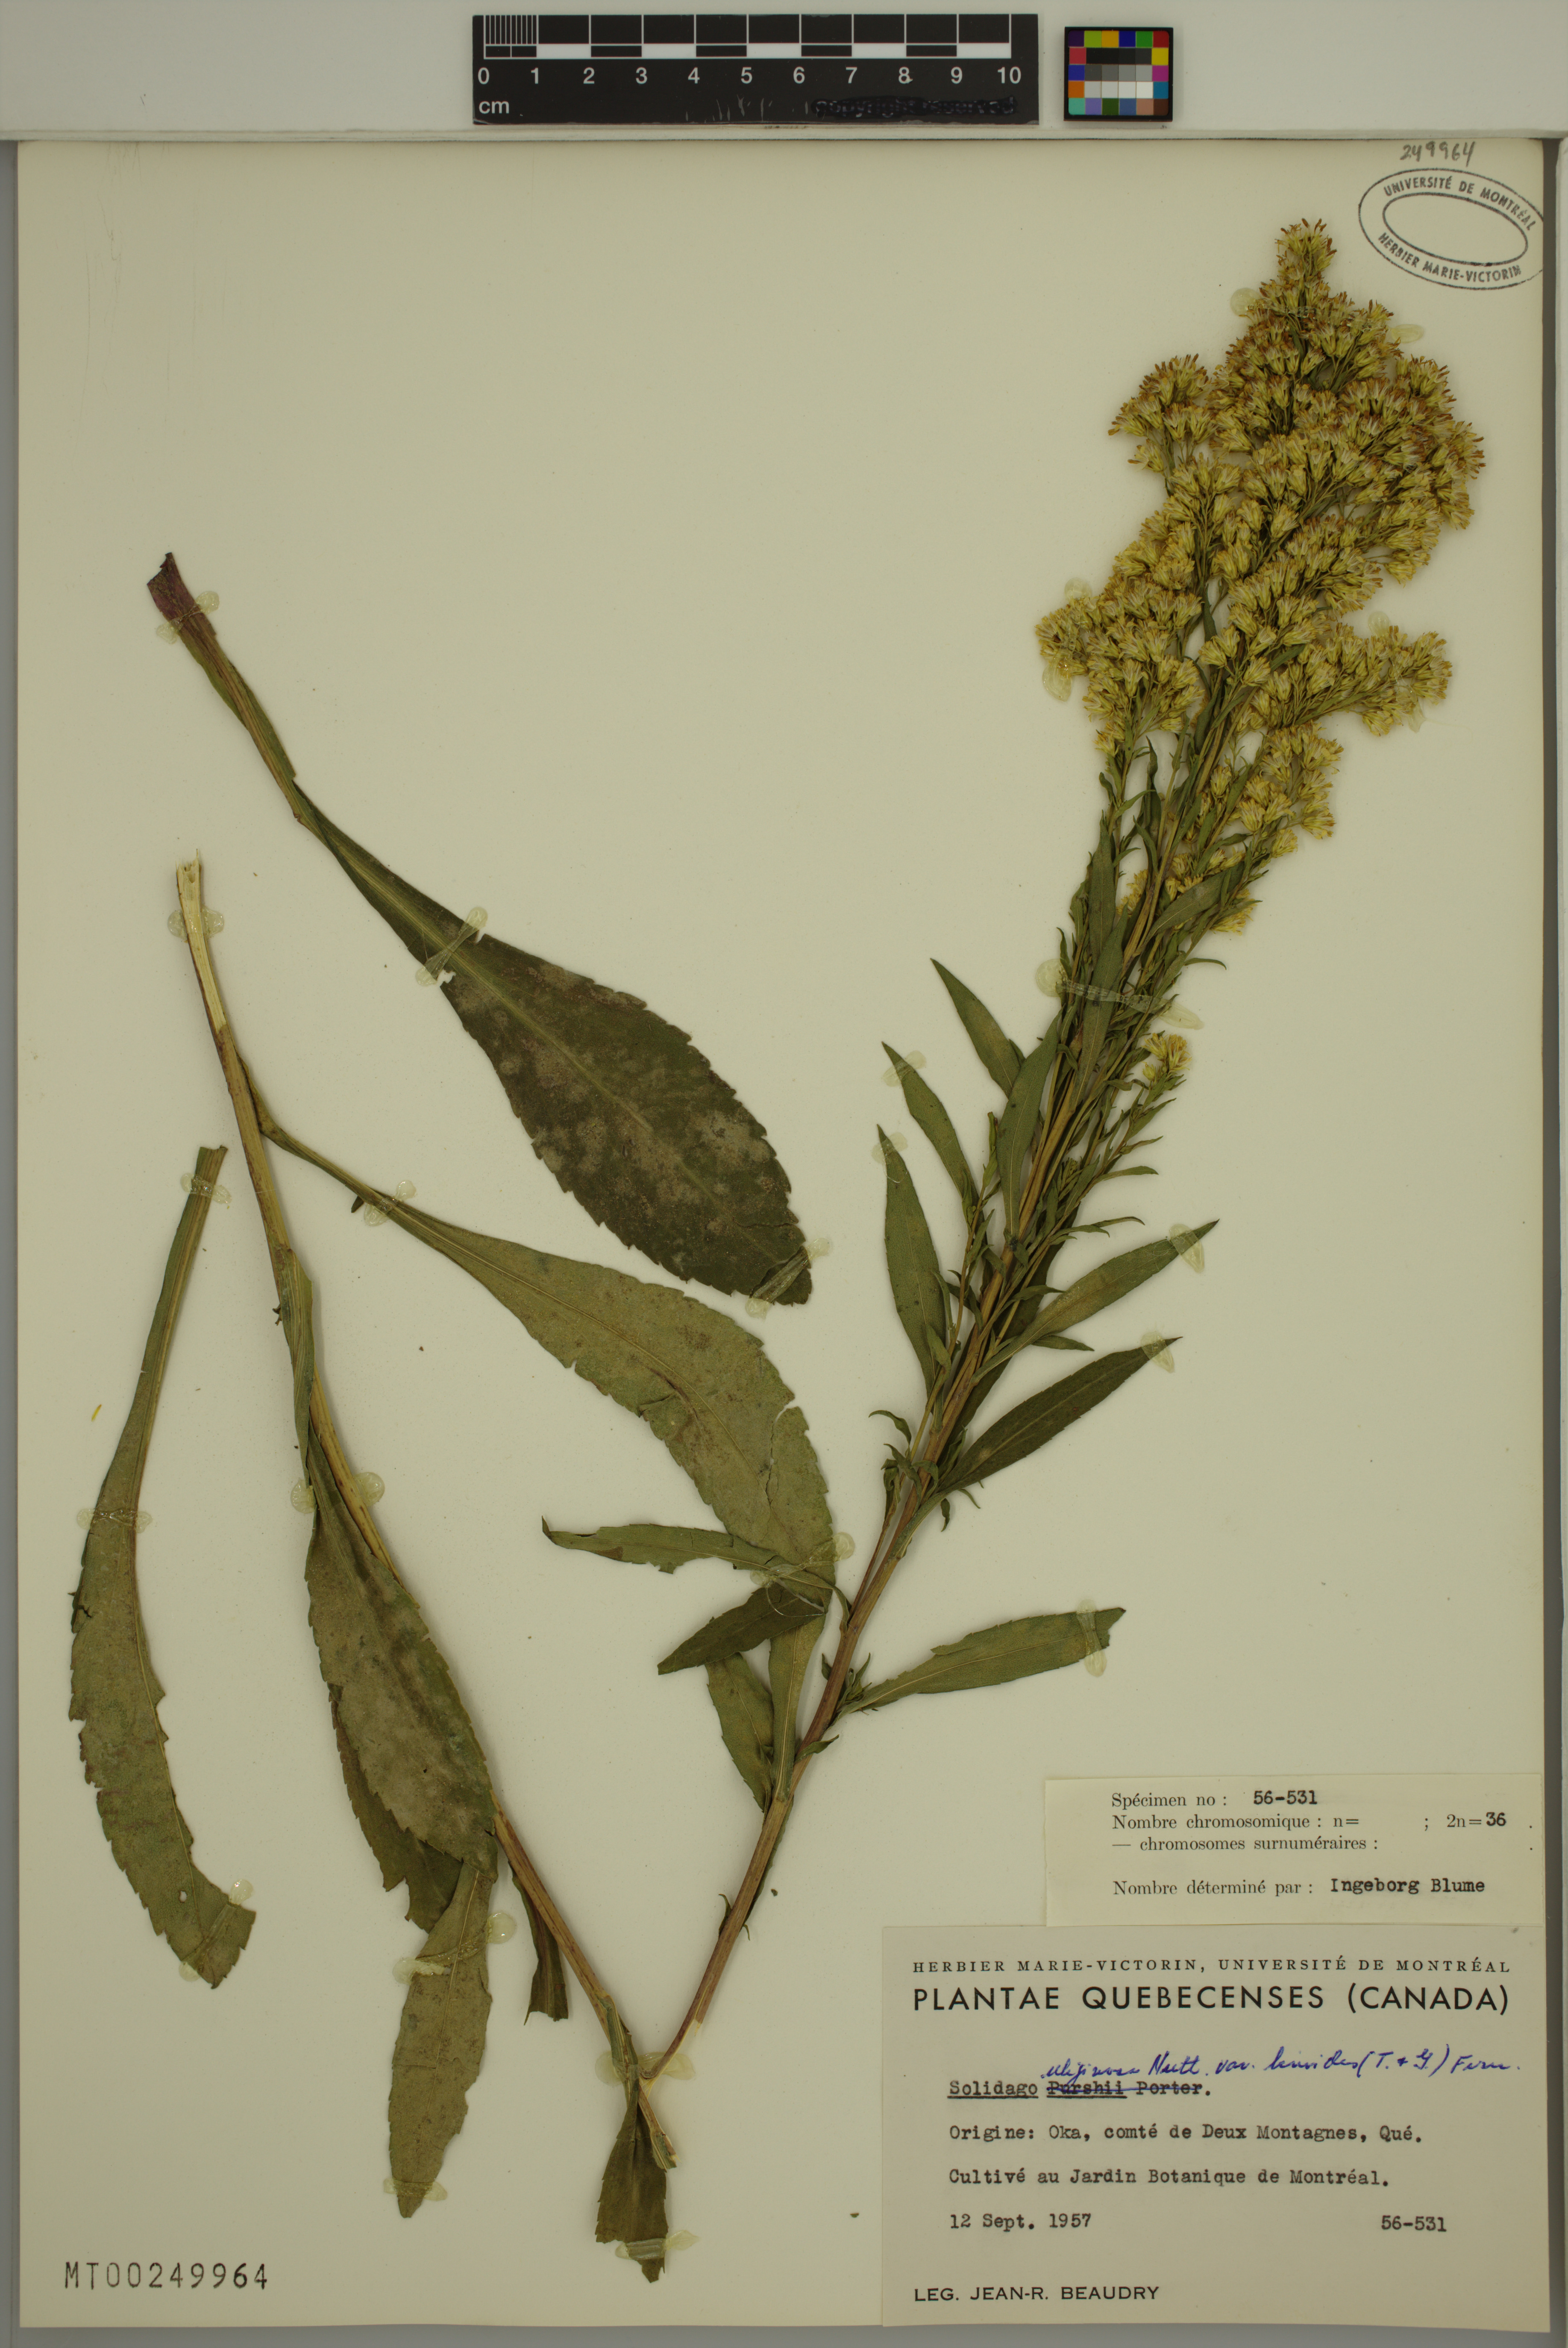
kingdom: Plantae
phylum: Tracheophyta
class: Magnoliopsida
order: Asterales
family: Asteraceae
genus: Solidago
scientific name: Solidago uliginosa
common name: Bog goldenrod
